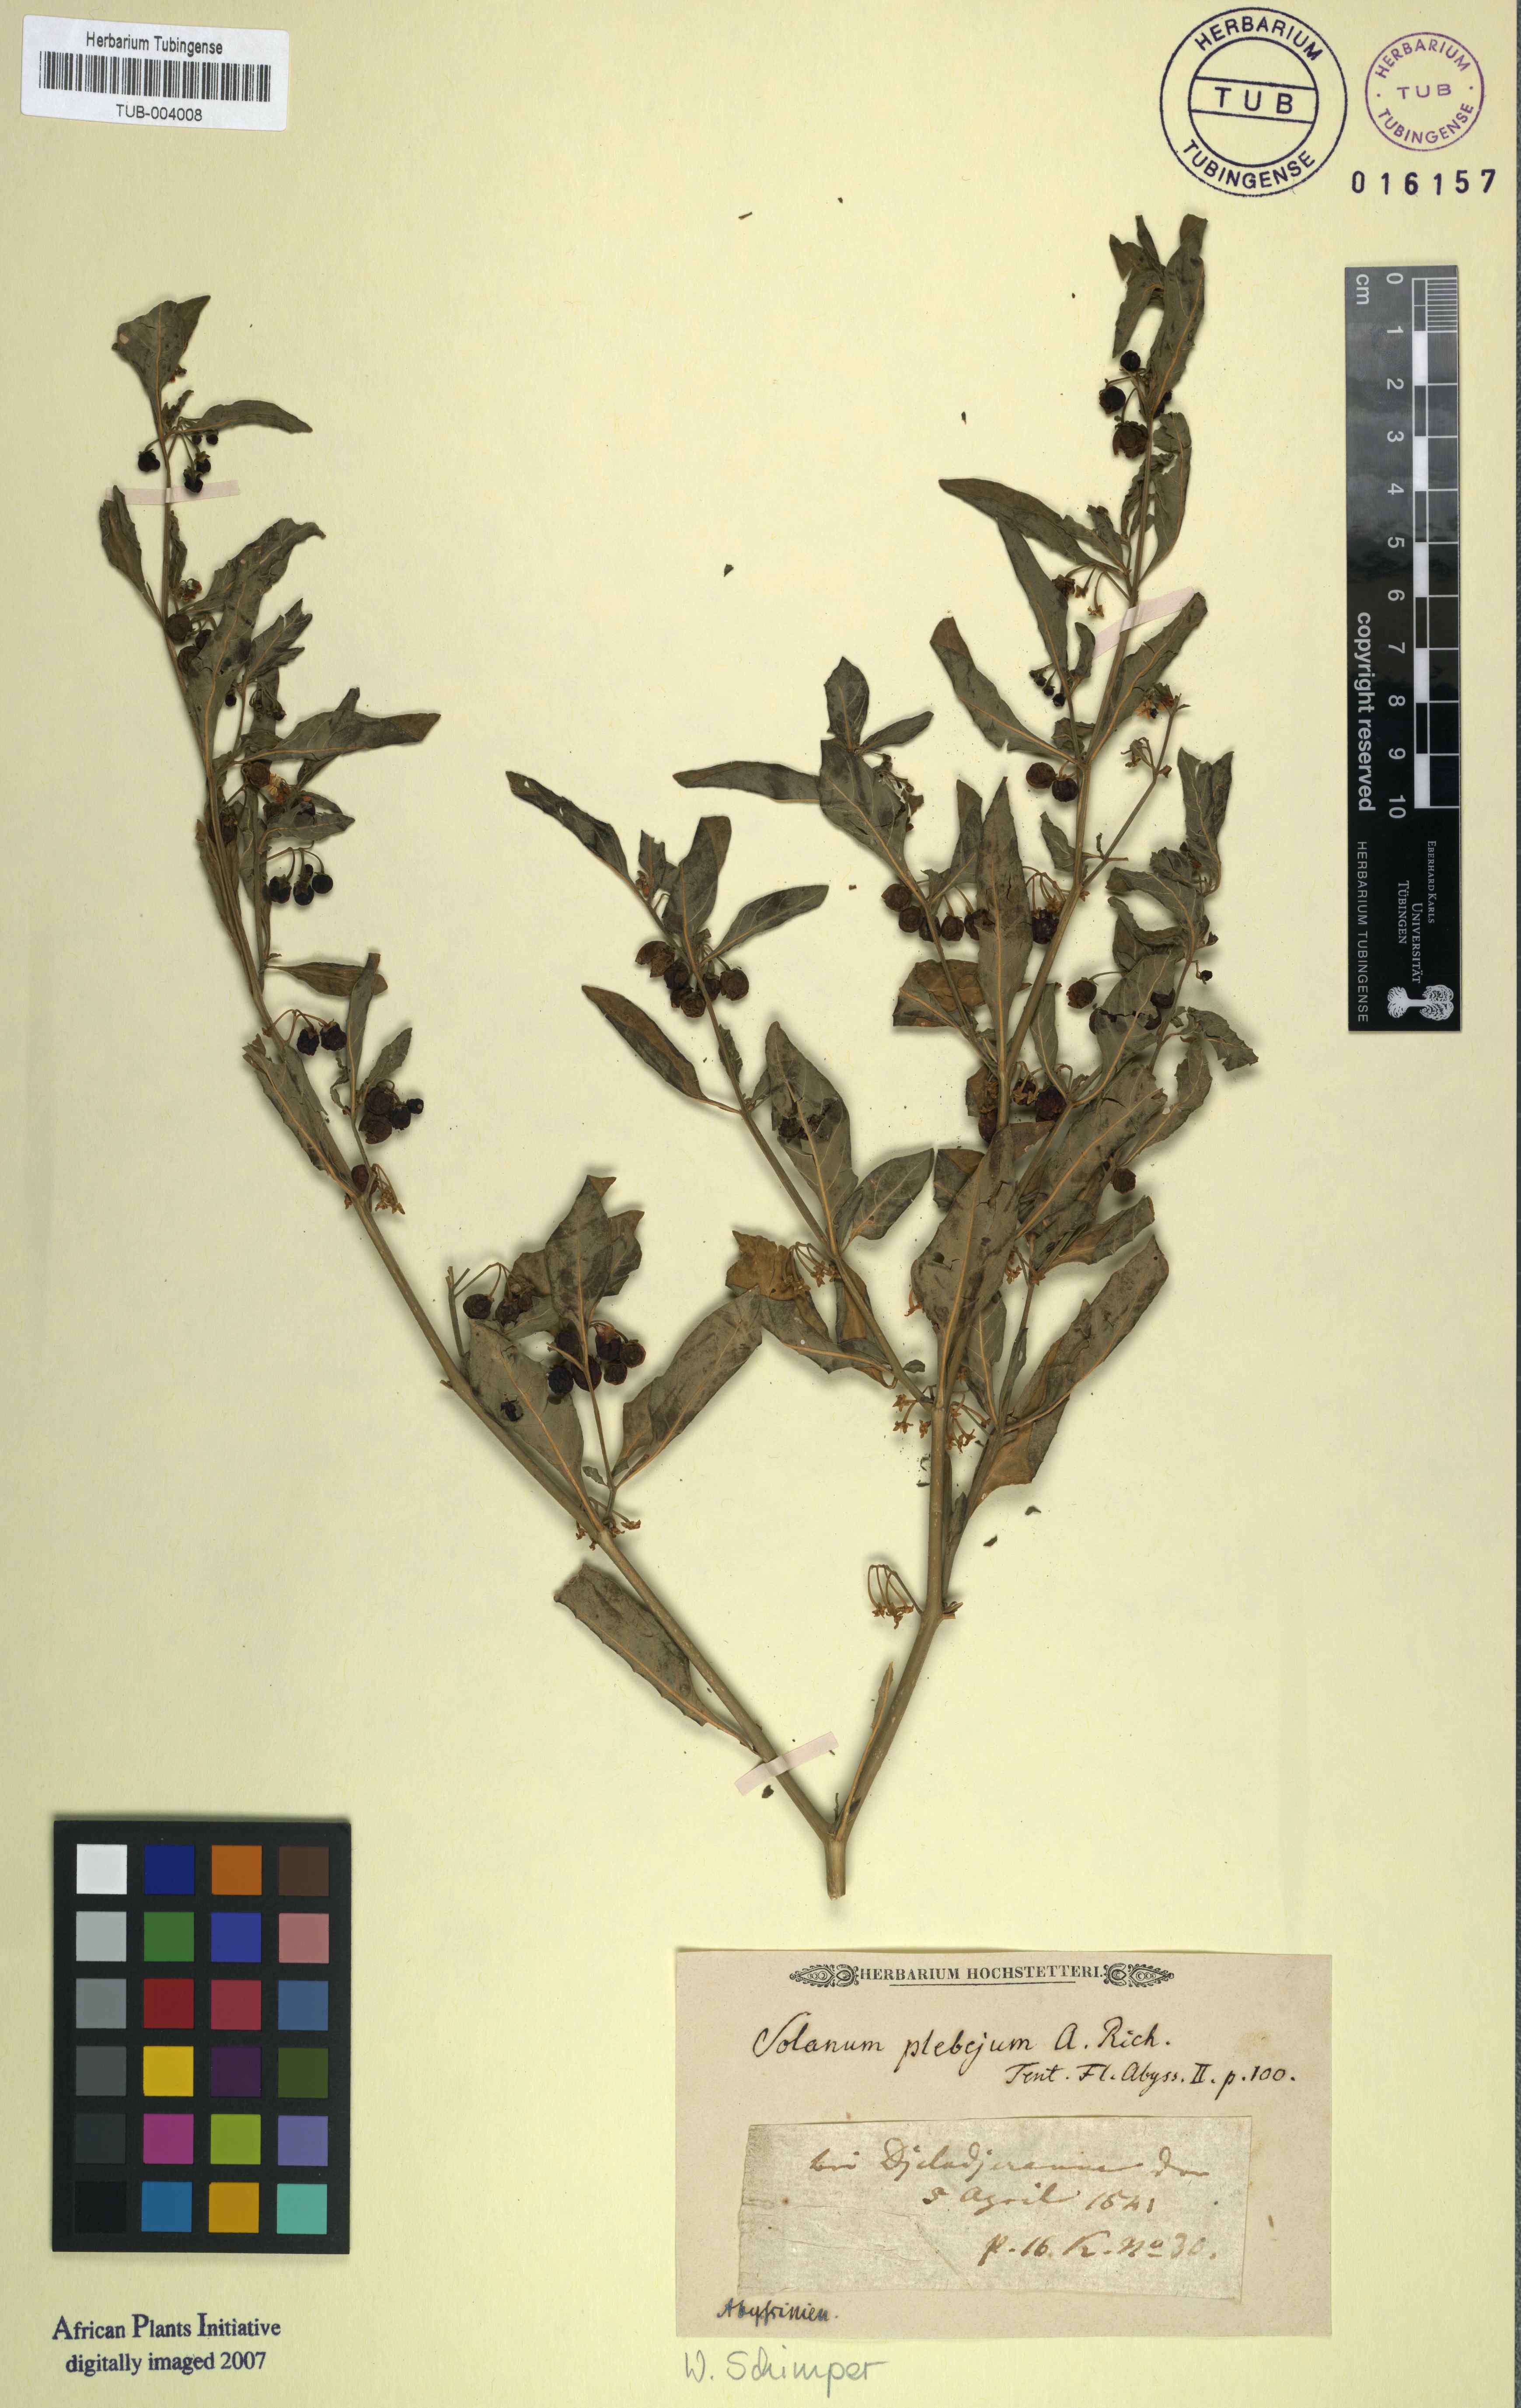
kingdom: Plantae
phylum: Tracheophyta
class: Magnoliopsida
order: Solanales
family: Solanaceae
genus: Solanum
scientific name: Solanum villosum
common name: Red nightshade
